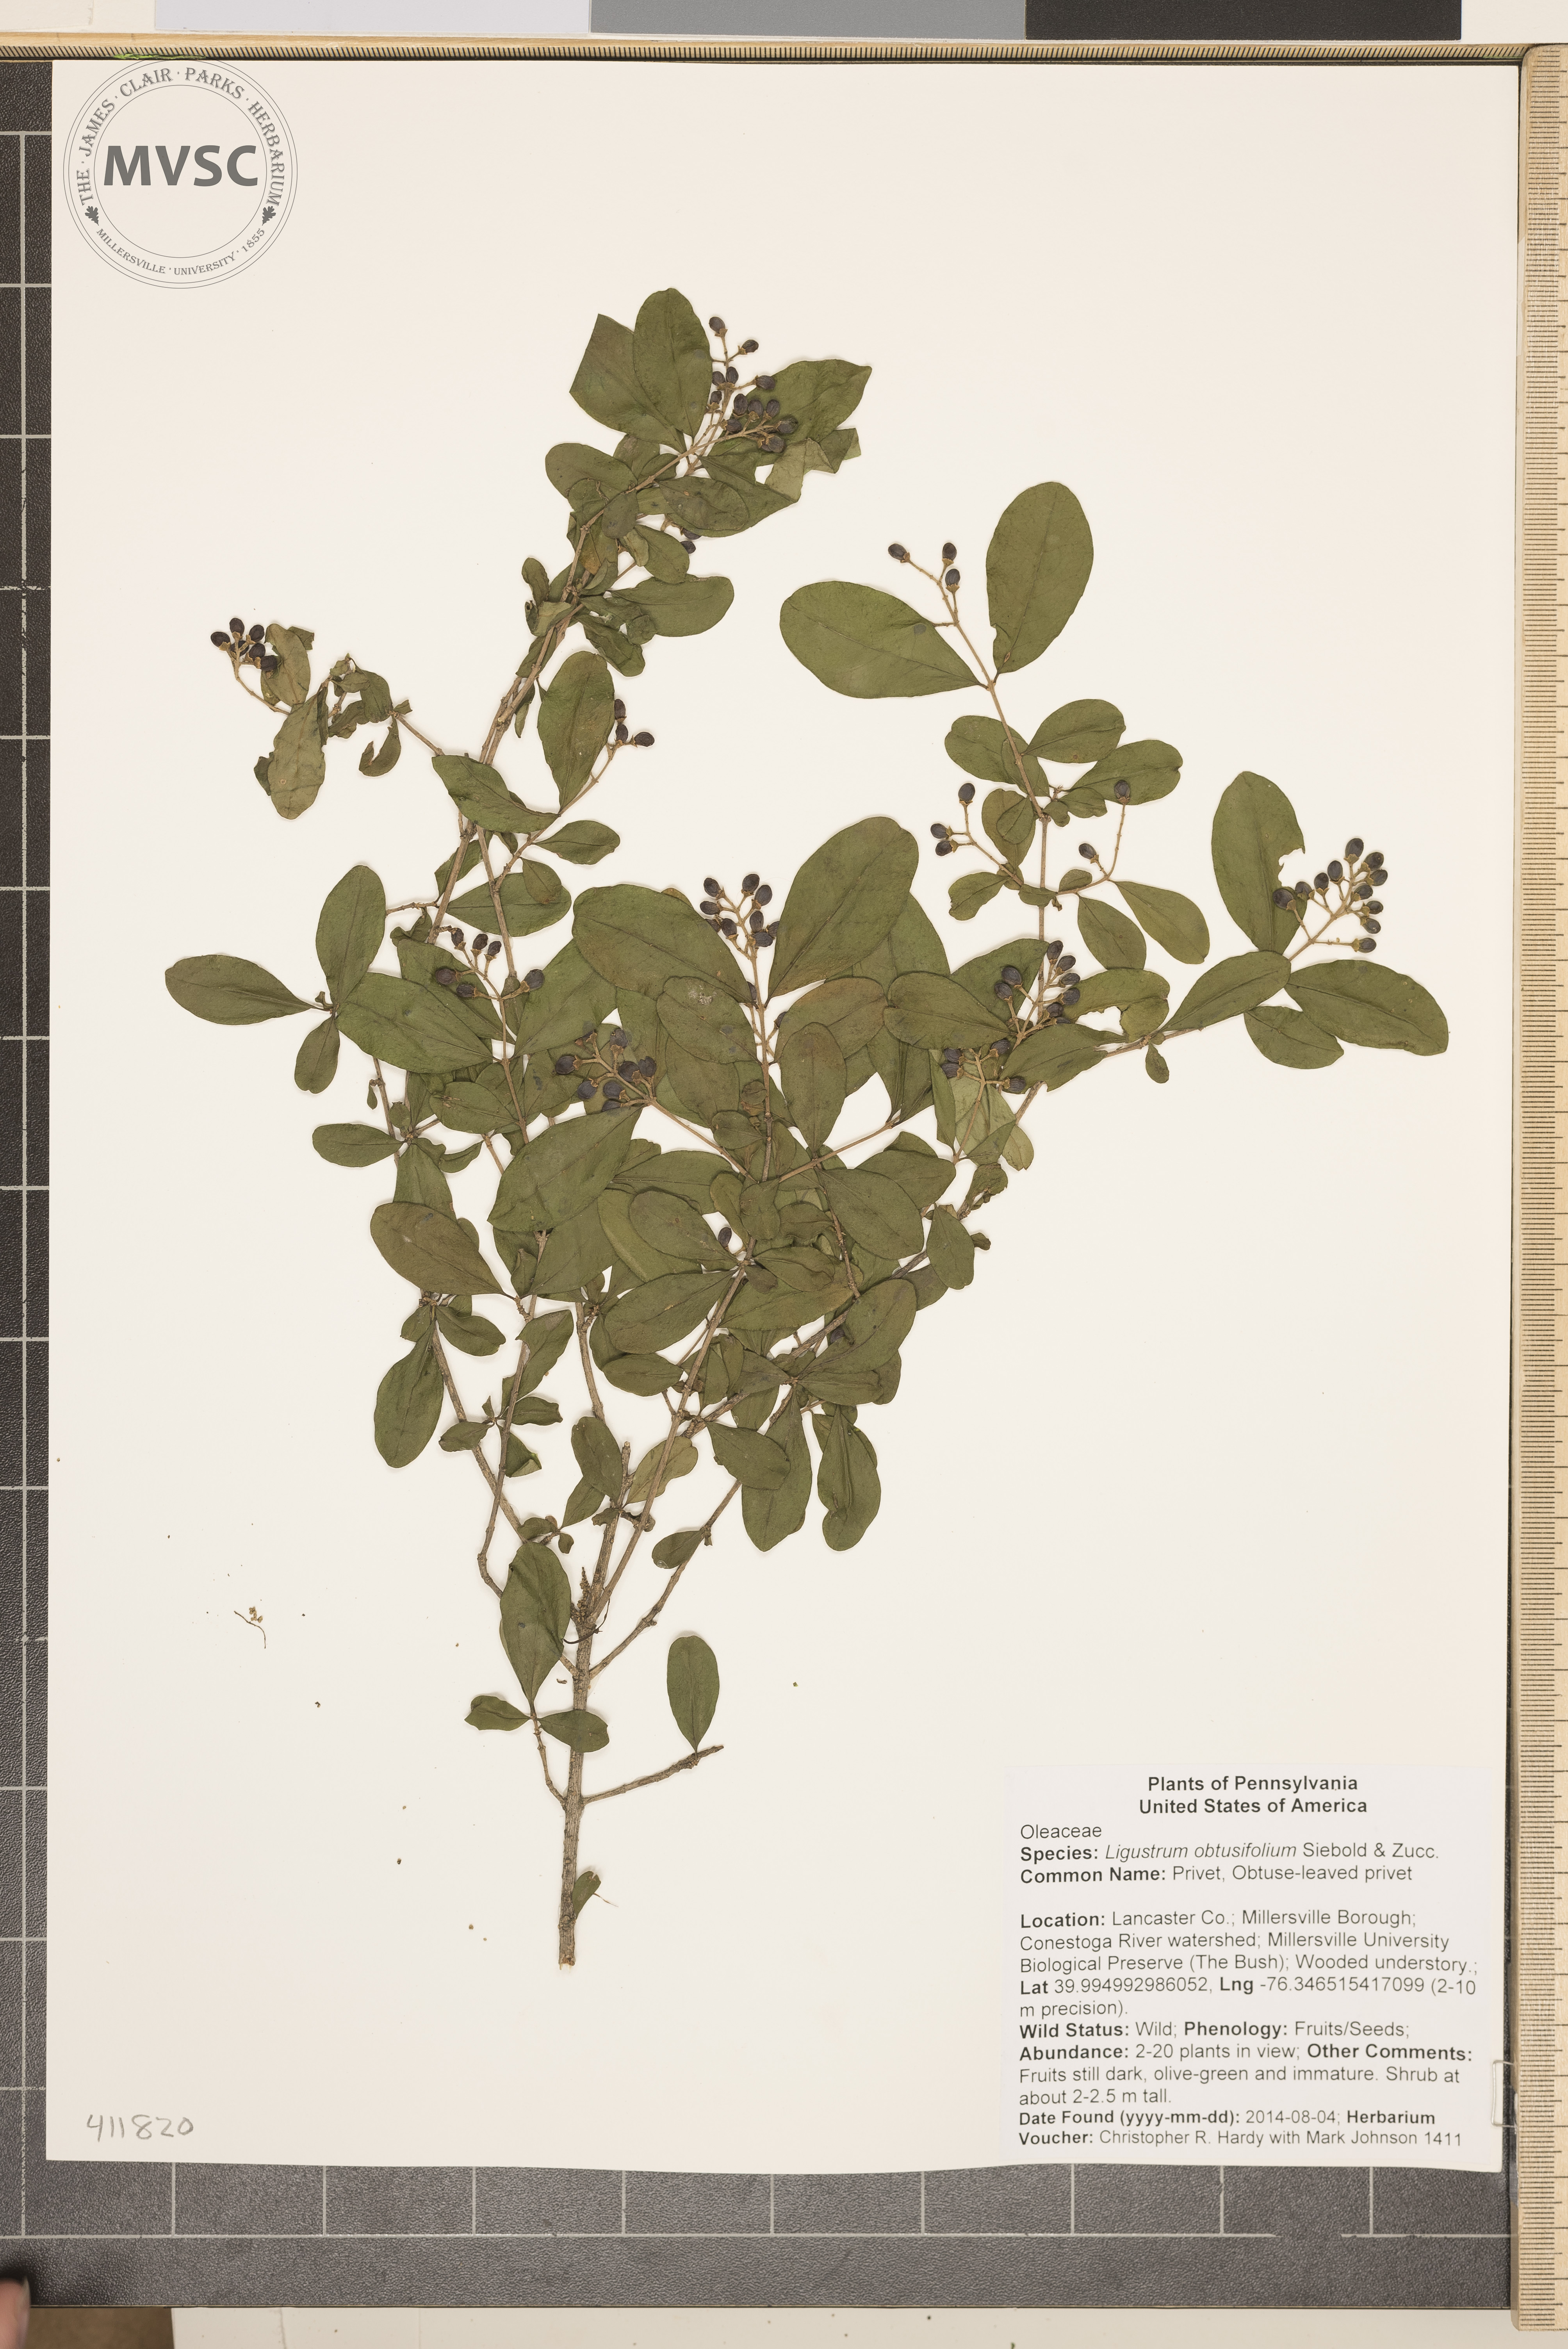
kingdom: Plantae
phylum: Tracheophyta
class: Magnoliopsida
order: Lamiales
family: Oleaceae
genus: Ligustrum
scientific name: Ligustrum obtusifolium
